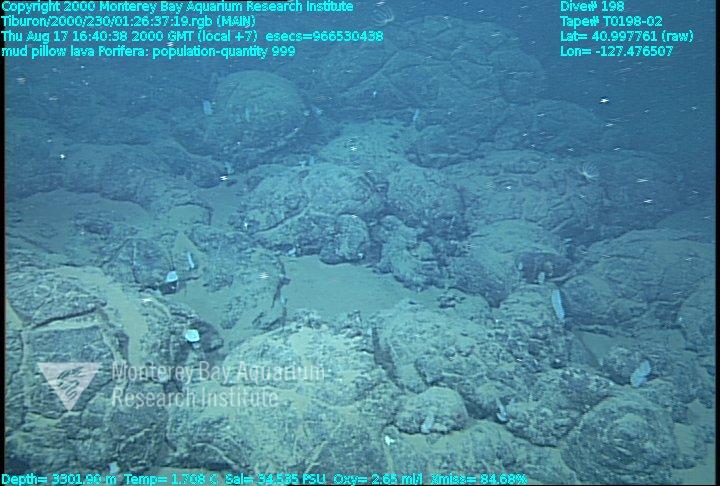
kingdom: Animalia
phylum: Porifera
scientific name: Porifera
